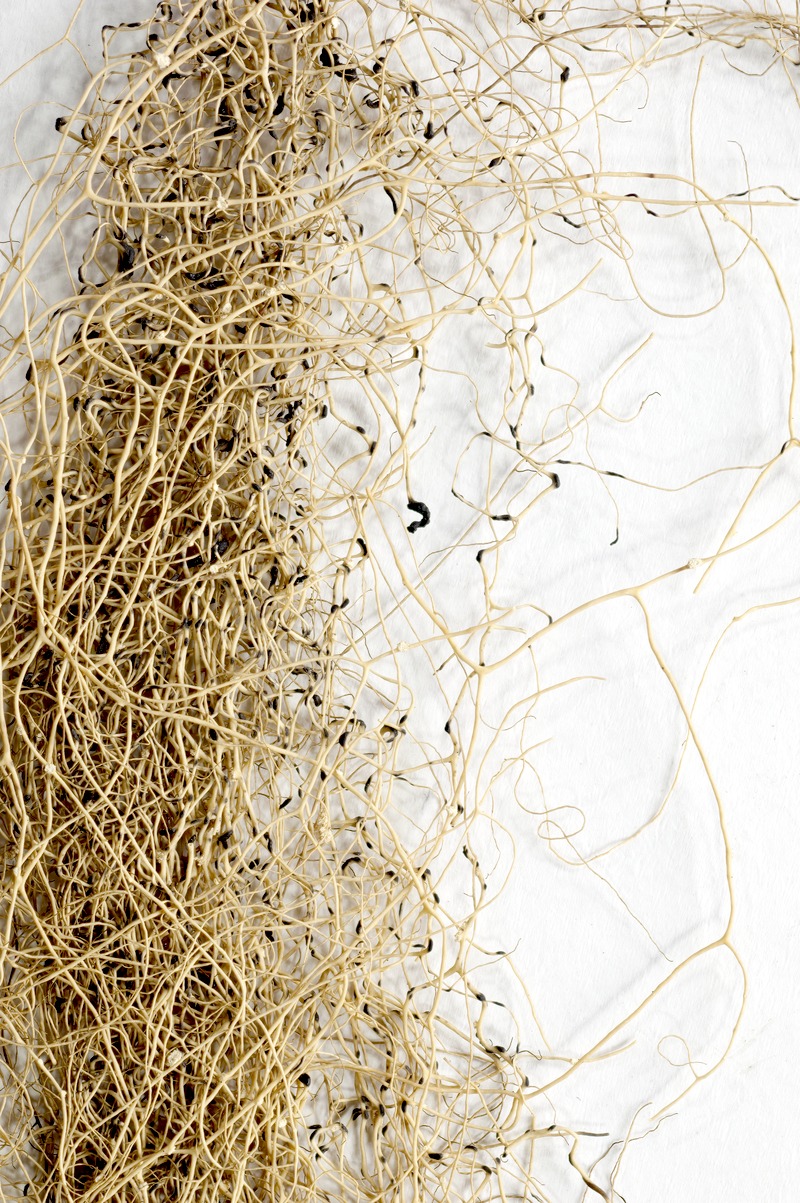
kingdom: Fungi
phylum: Ascomycota
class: Lecanoromycetes
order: Lecanorales
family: Parmeliaceae
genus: Bryoria
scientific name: Bryoria capillaris
